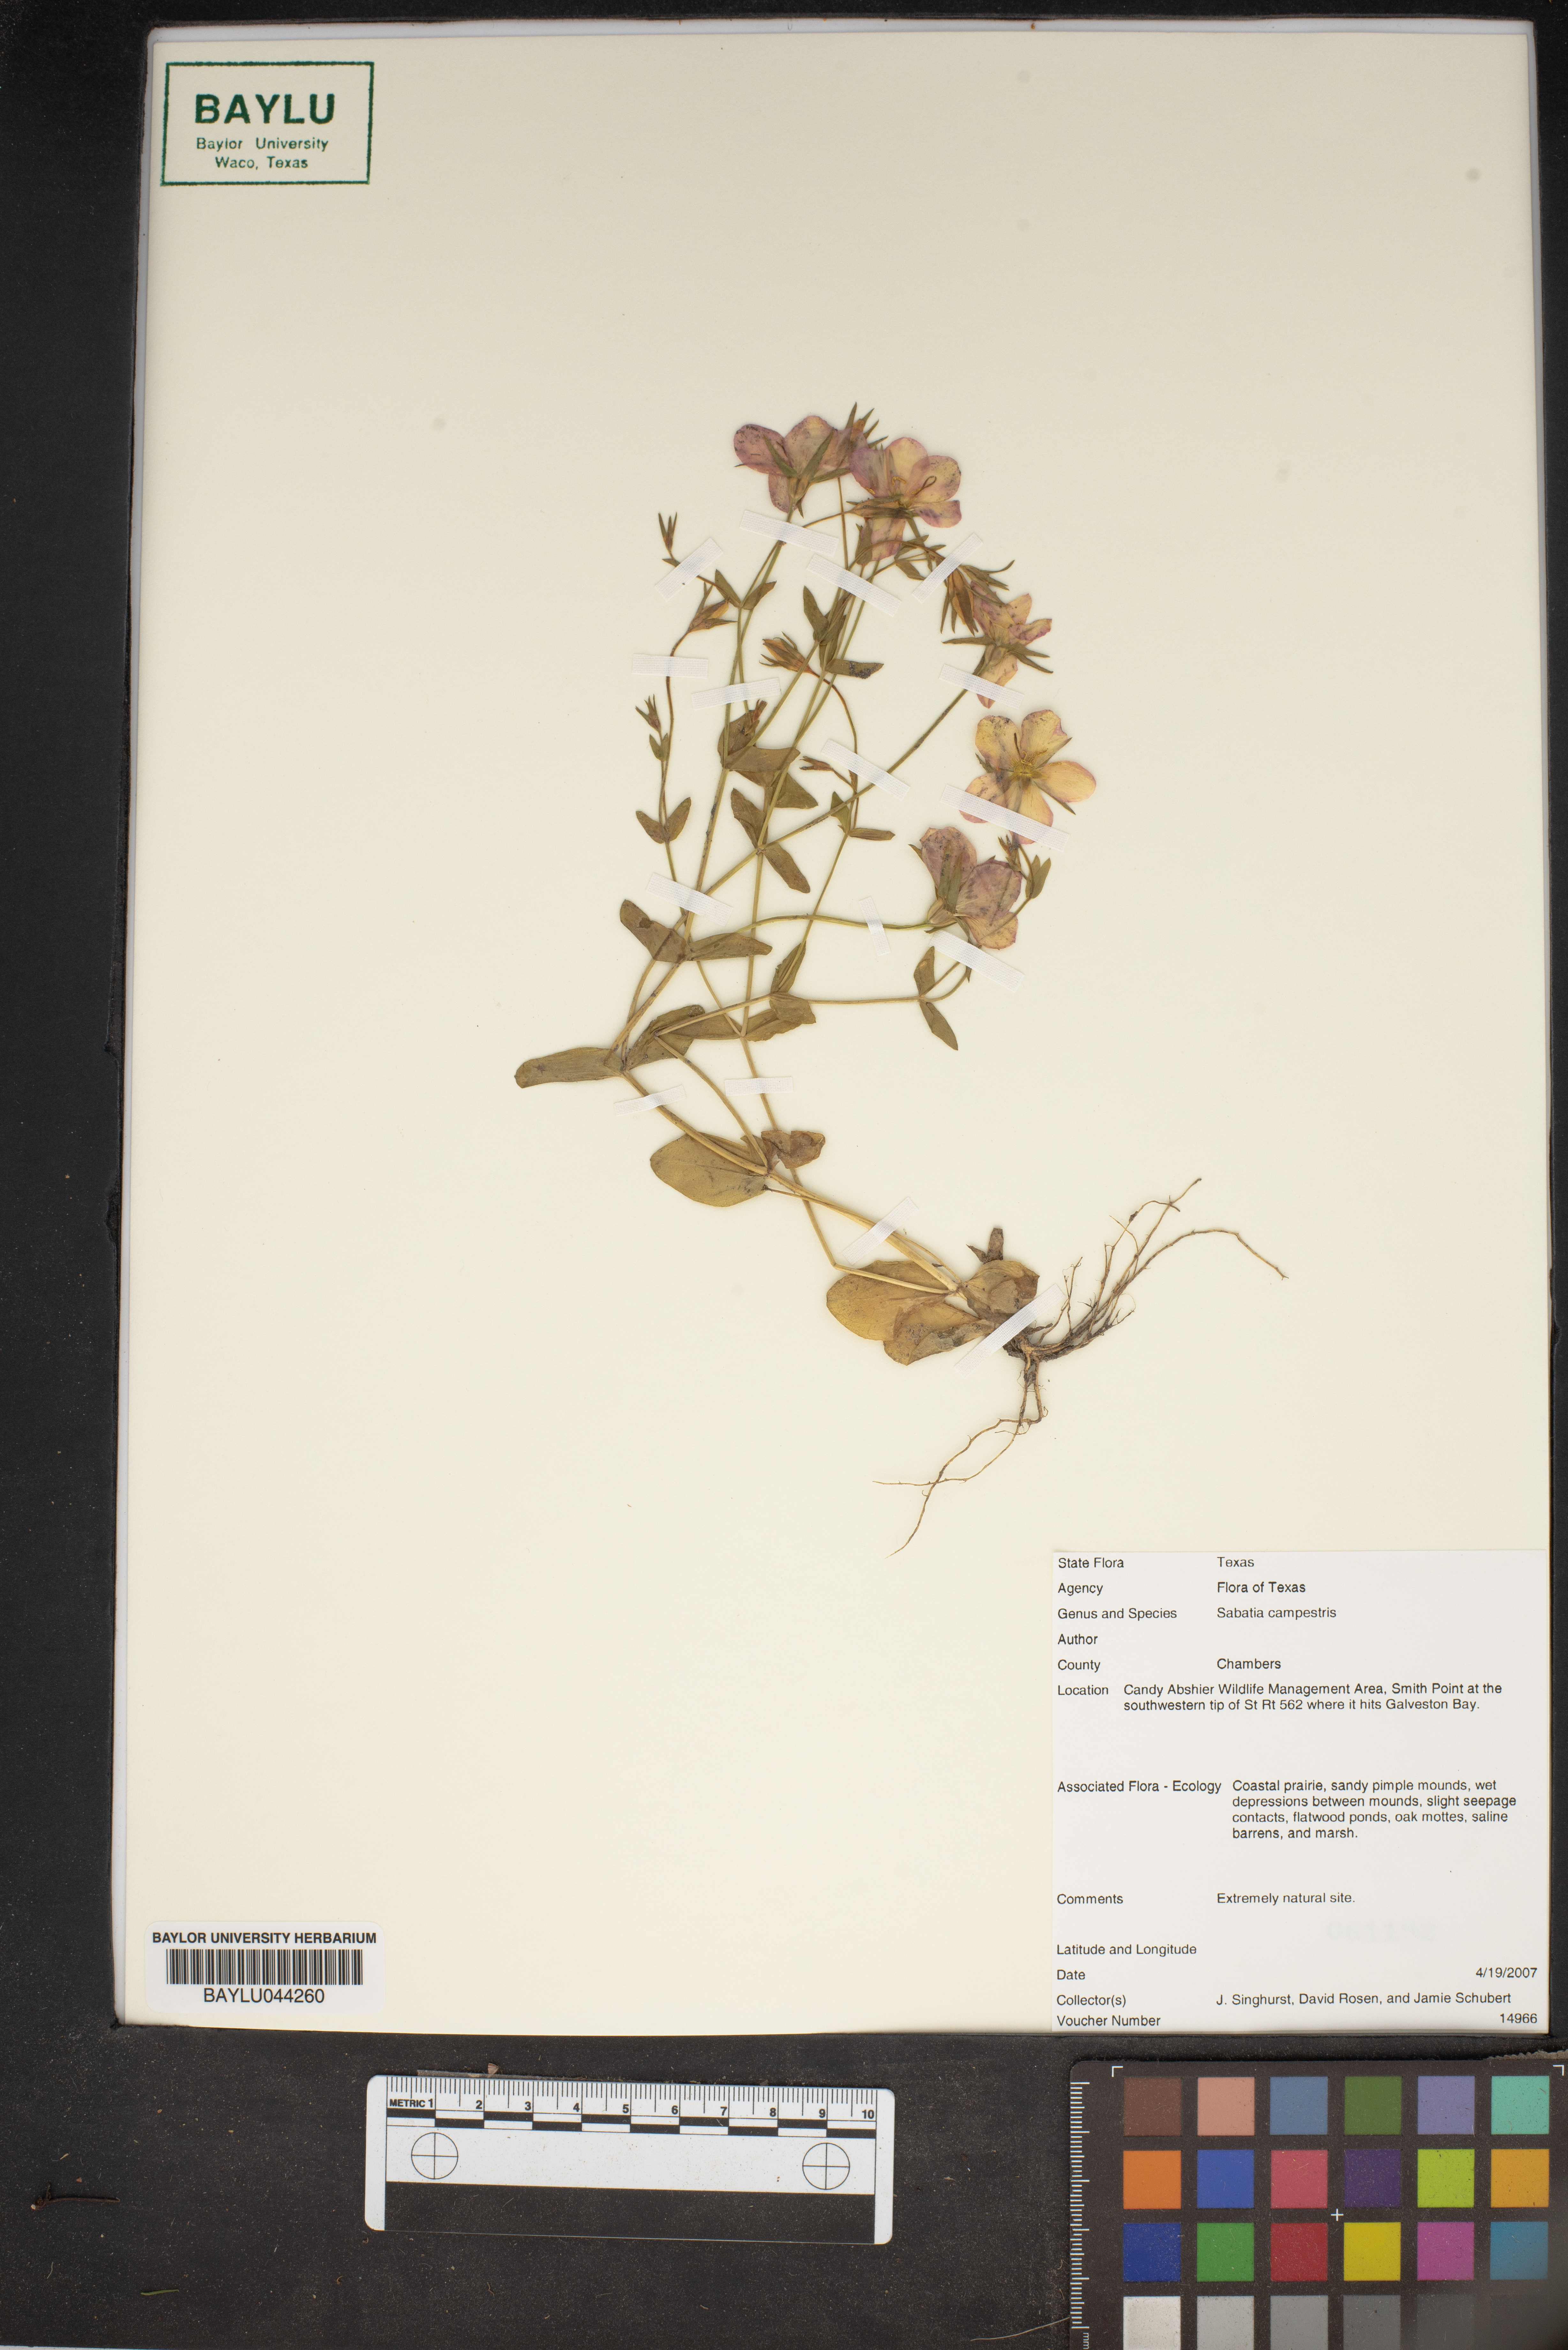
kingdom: Plantae
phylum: Tracheophyta
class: Magnoliopsida
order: Gentianales
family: Gentianaceae
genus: Sabatia
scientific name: Sabatia campestris
